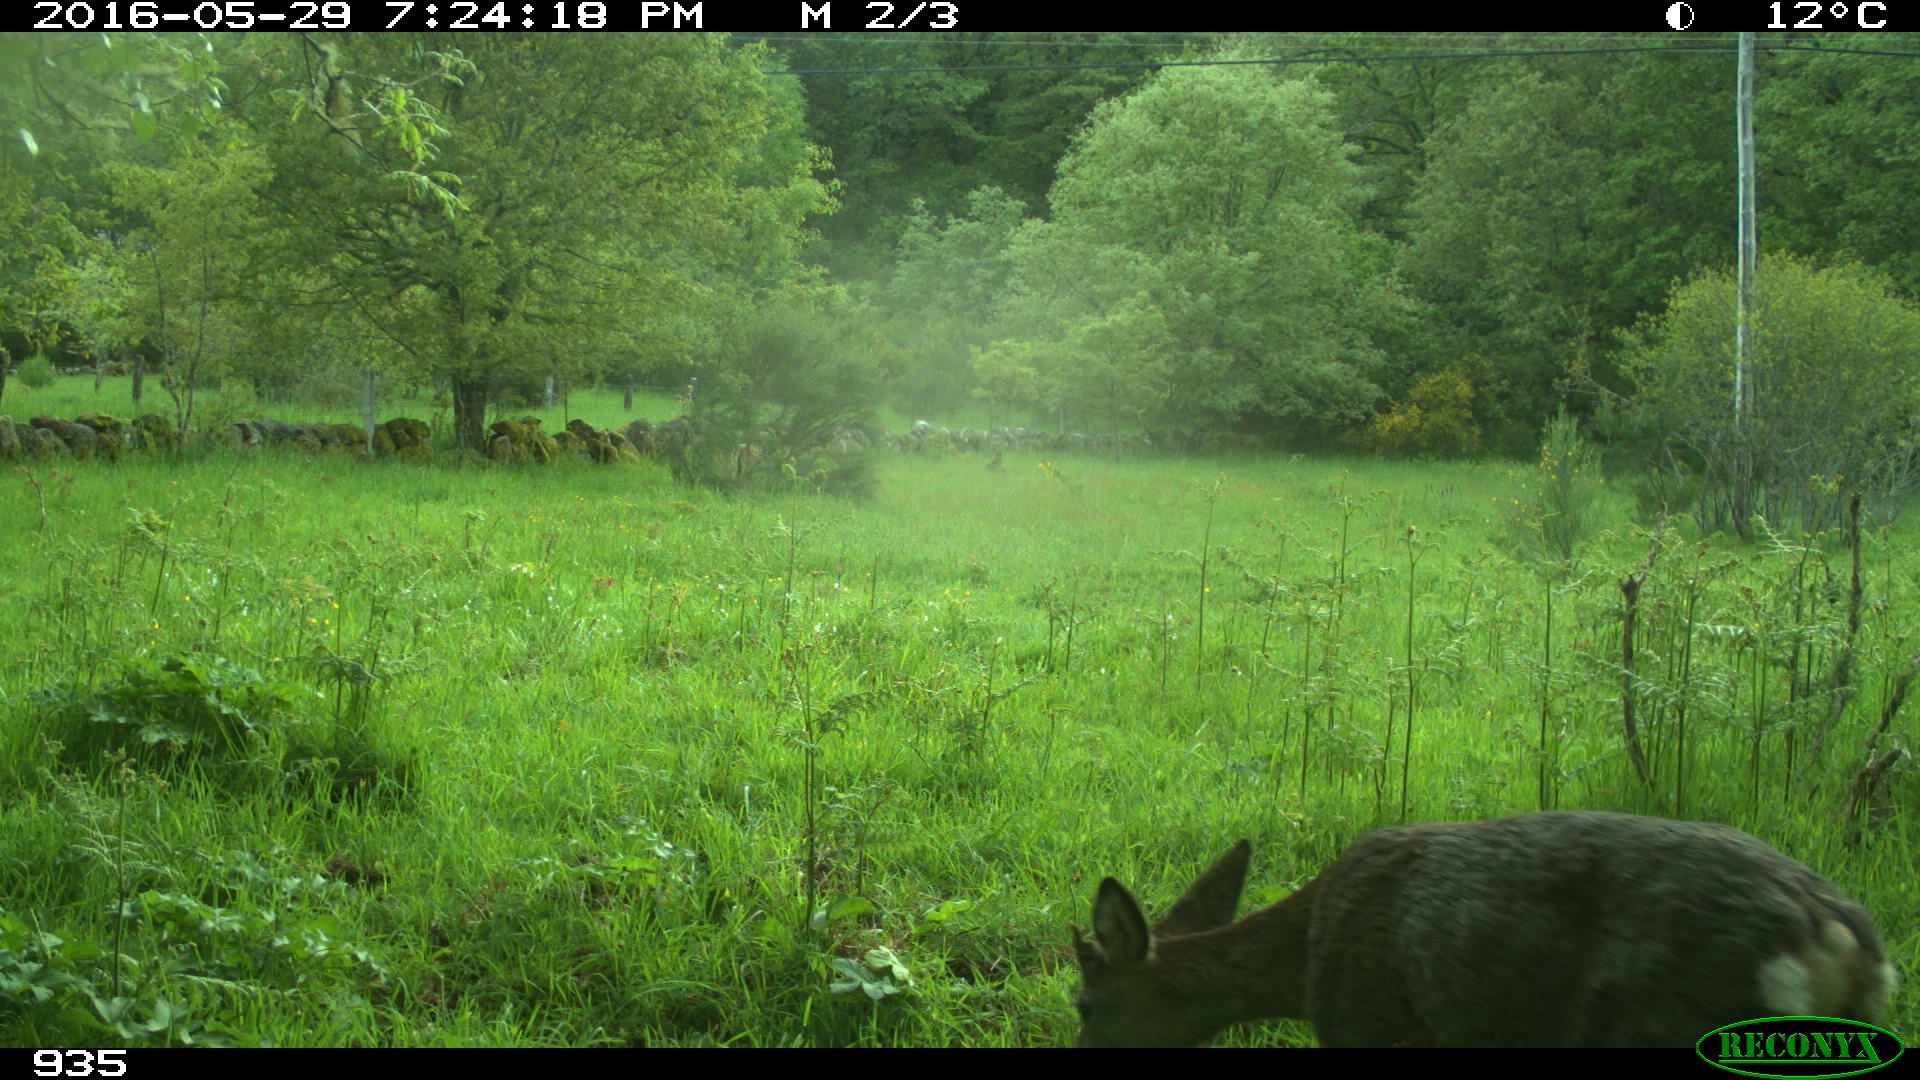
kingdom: Animalia
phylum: Chordata
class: Mammalia
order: Artiodactyla
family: Cervidae
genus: Capreolus
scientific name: Capreolus capreolus
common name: Western roe deer
